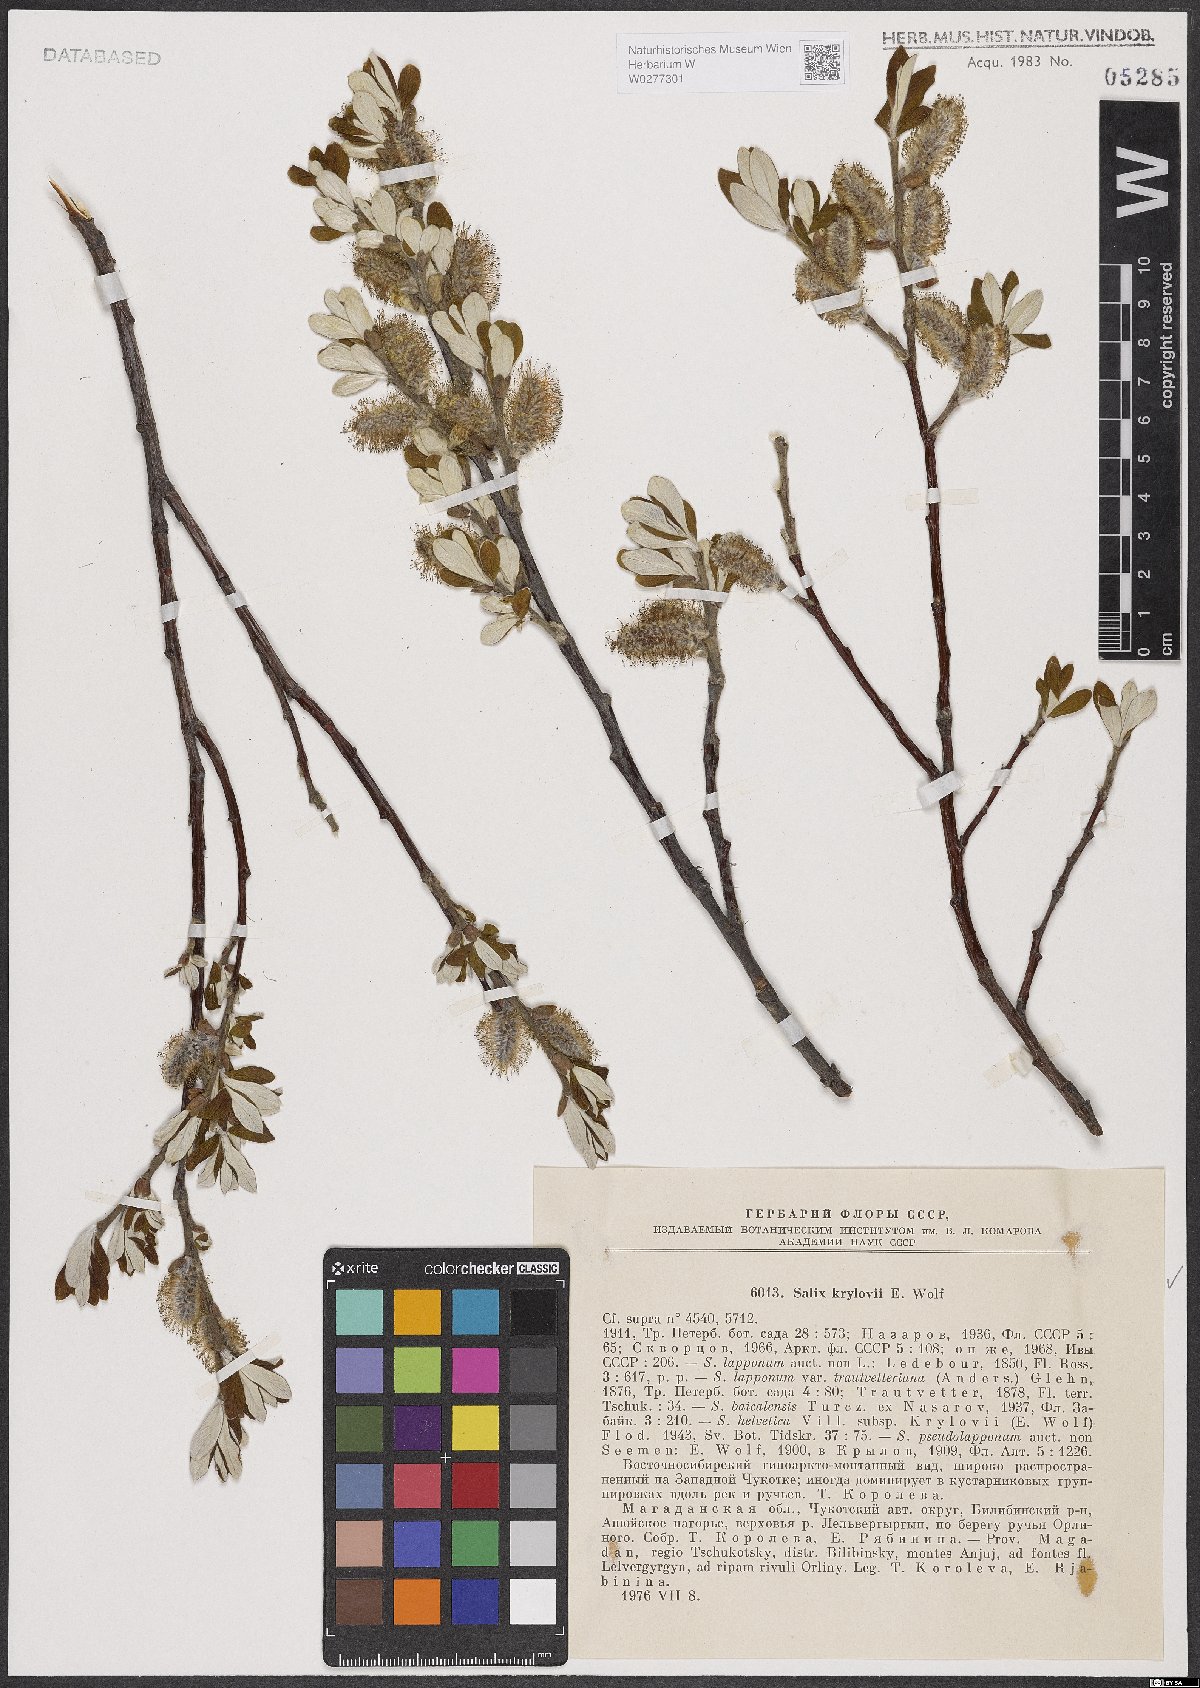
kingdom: Plantae
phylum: Tracheophyta
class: Magnoliopsida
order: Malpighiales
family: Salicaceae
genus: Salix
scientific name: Salix krylovii
